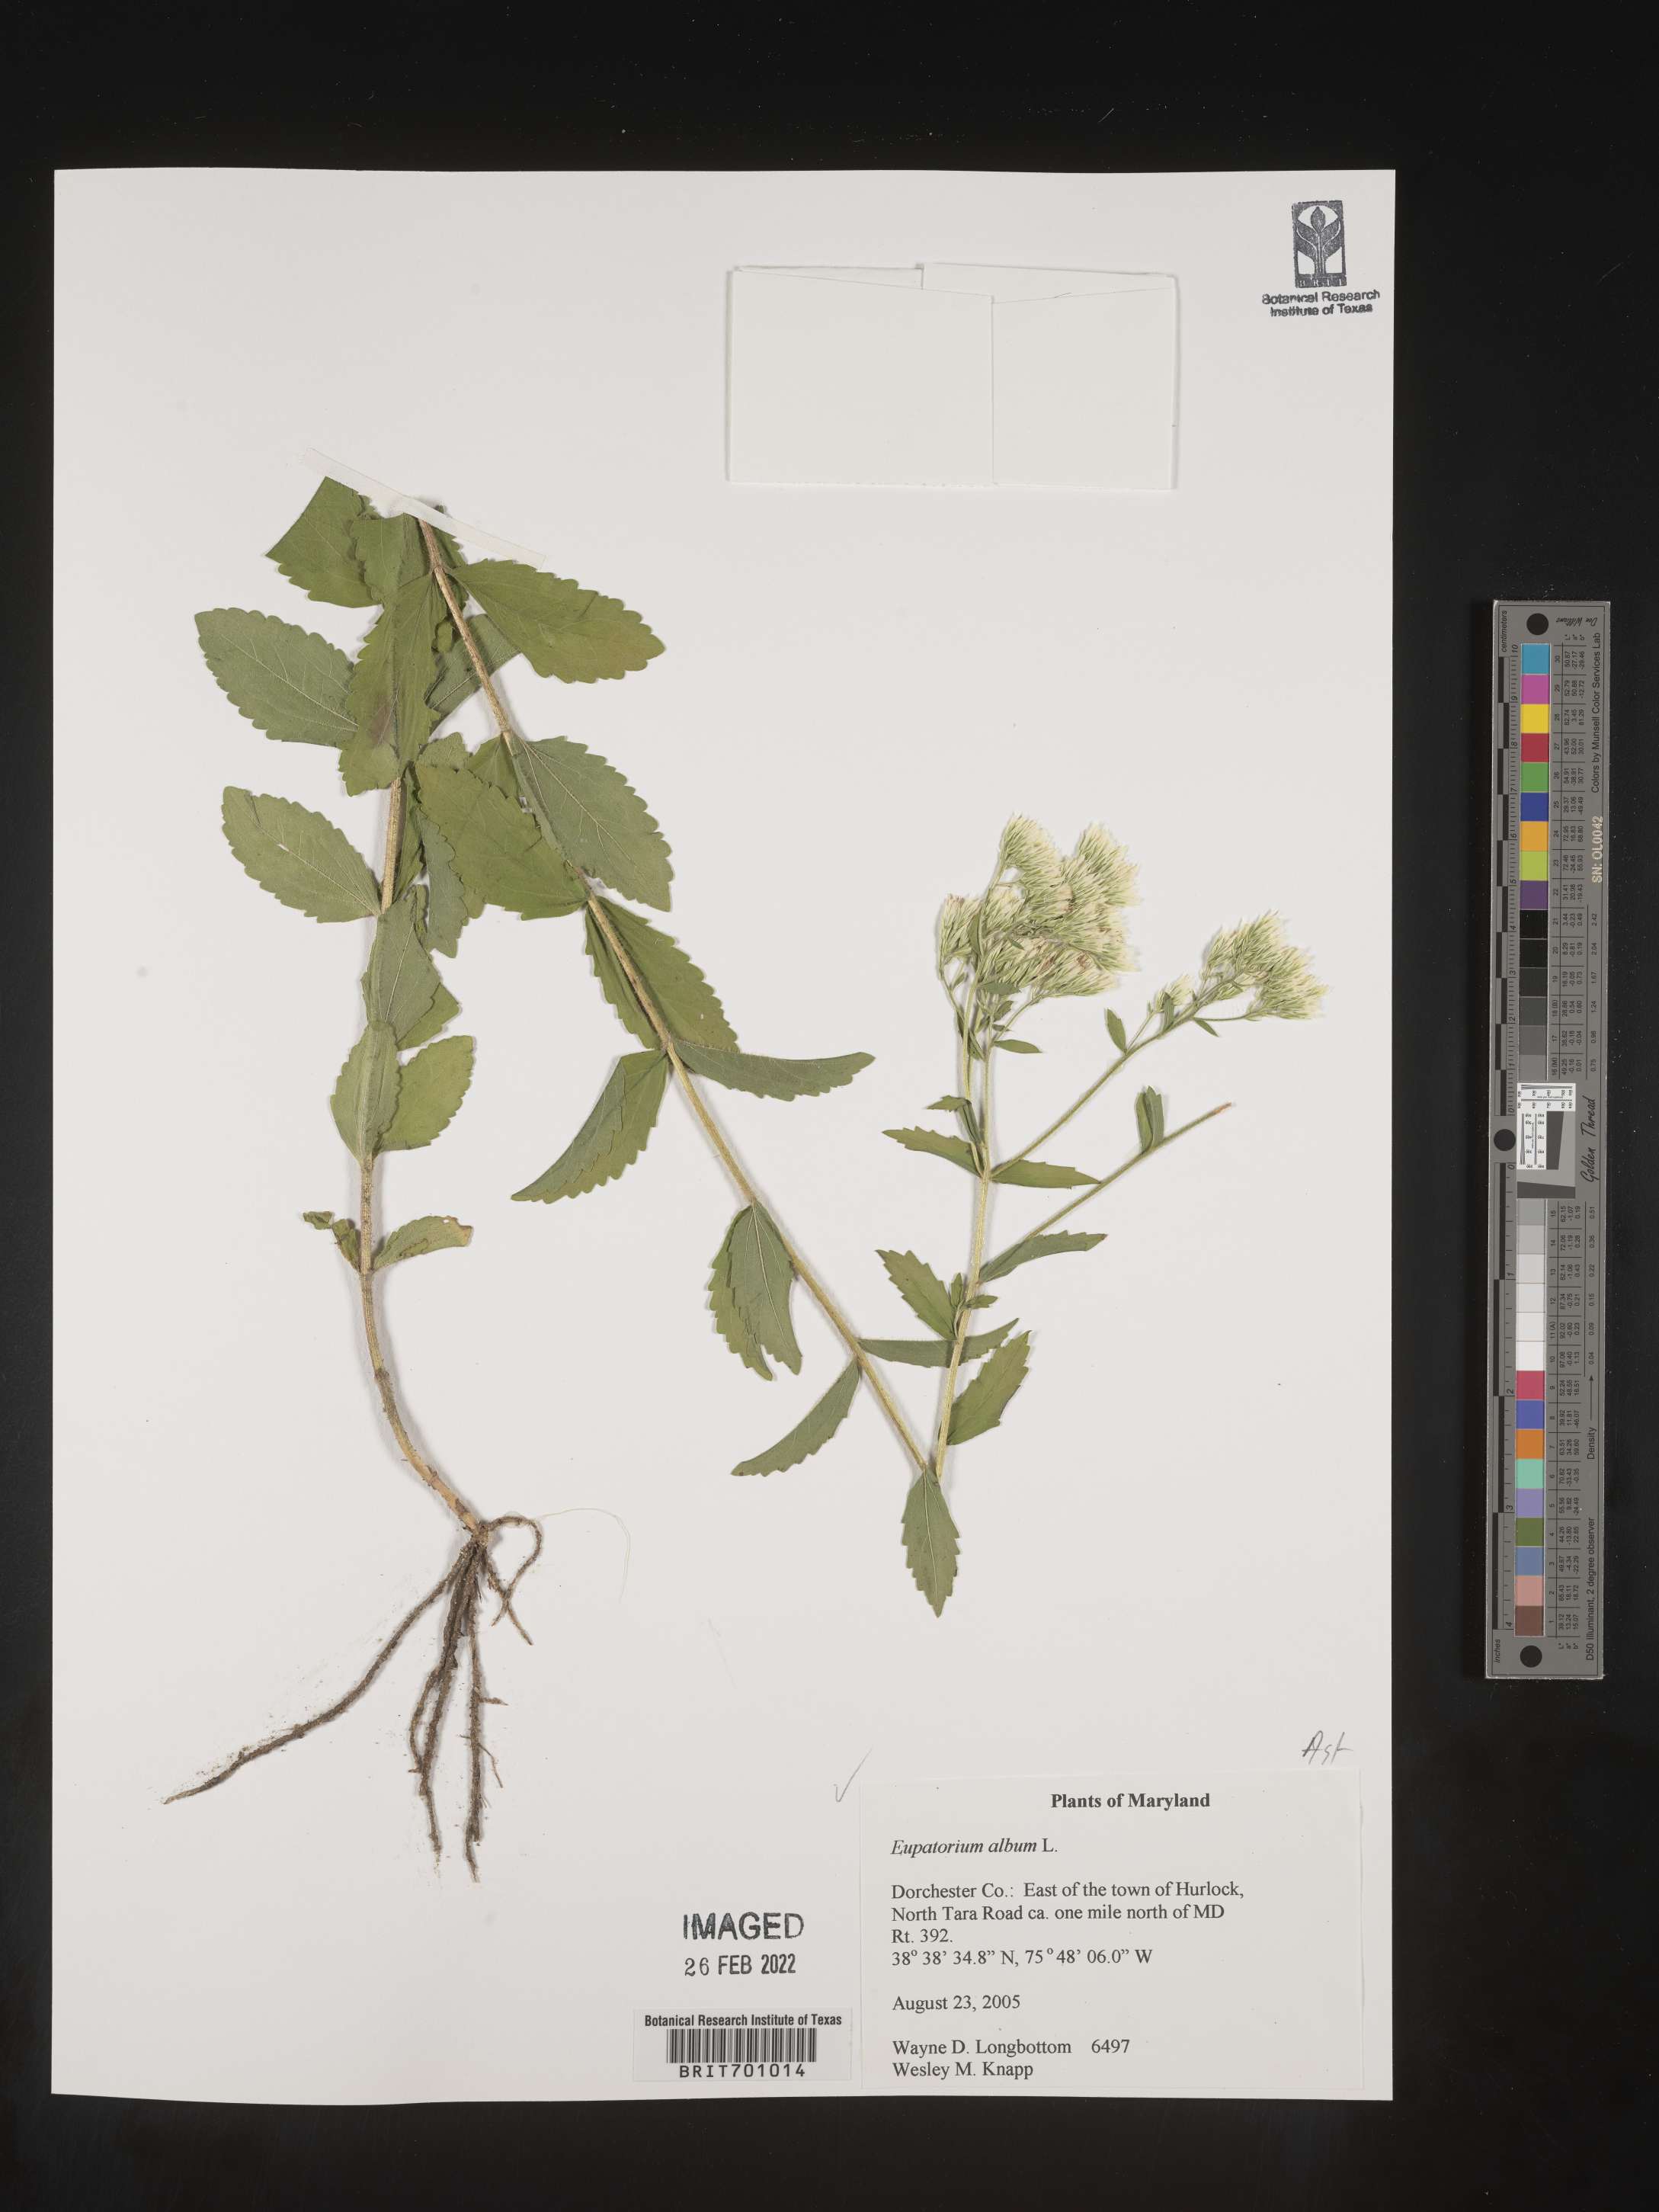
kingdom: Plantae
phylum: Tracheophyta
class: Magnoliopsida
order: Asterales
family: Asteraceae
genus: Eupatorium
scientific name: Eupatorium album
